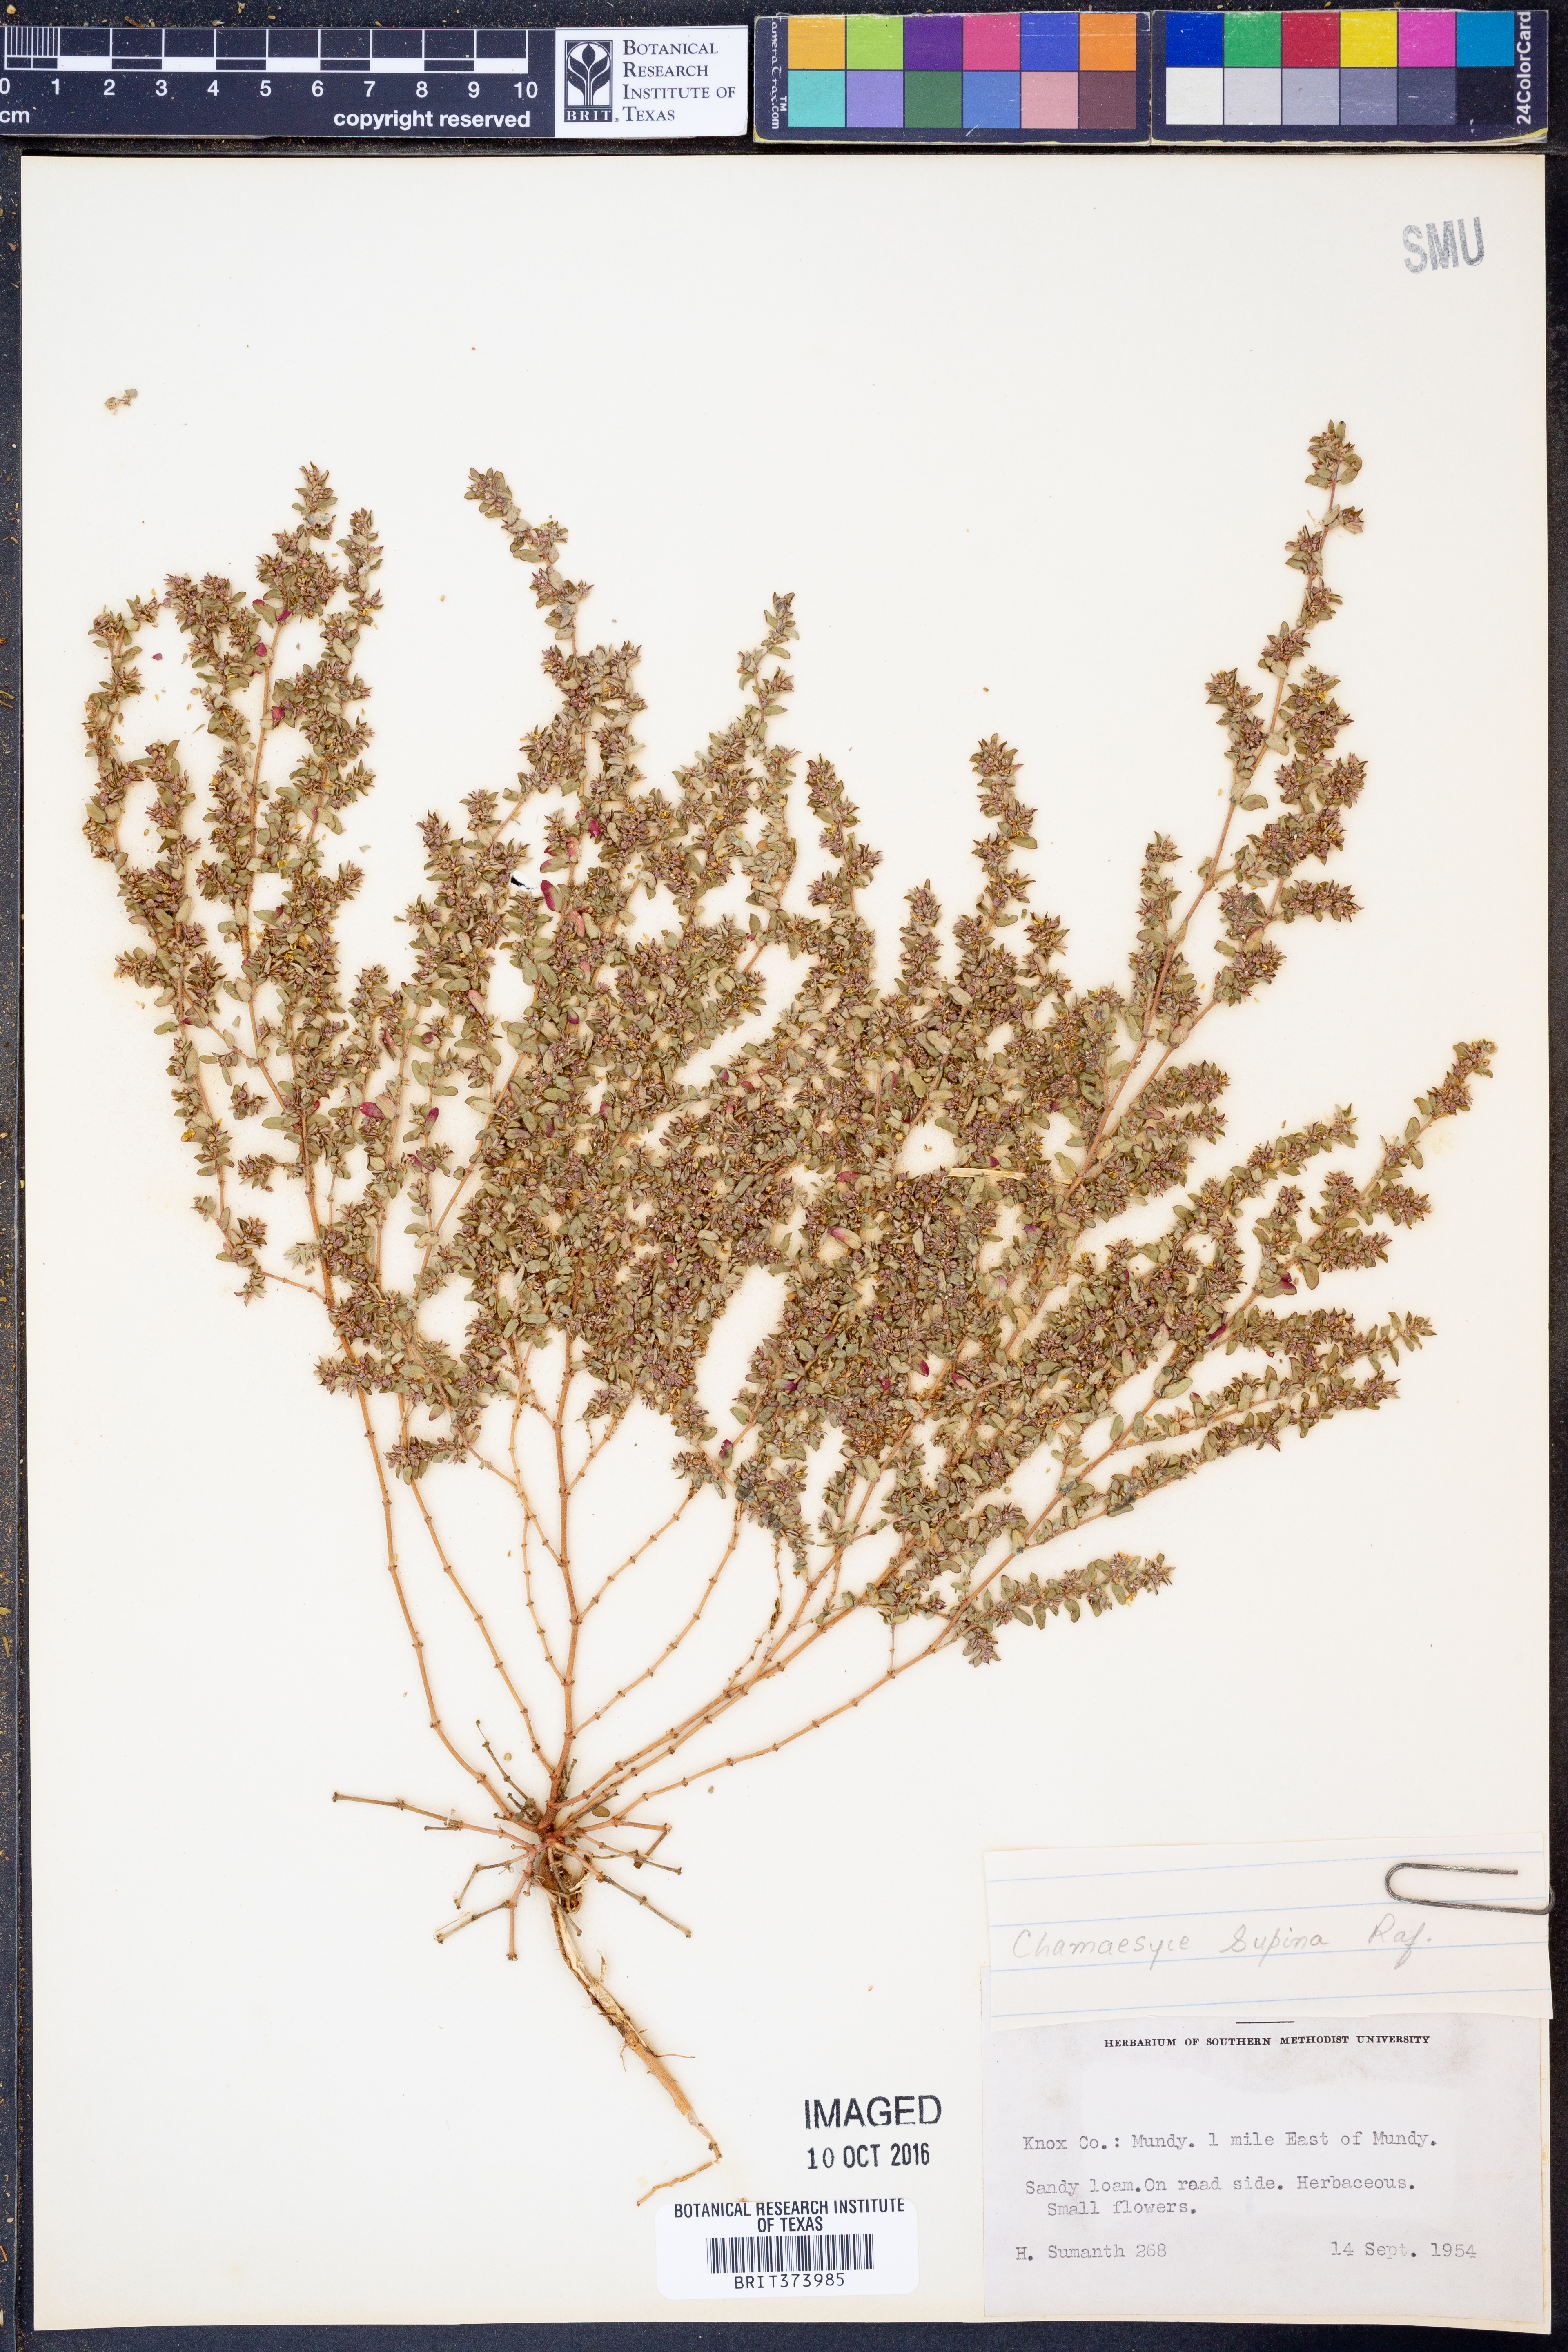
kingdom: Plantae
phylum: Tracheophyta
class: Magnoliopsida
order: Malpighiales
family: Euphorbiaceae
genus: Euphorbia
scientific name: Euphorbia maculata
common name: Spotted spurge
